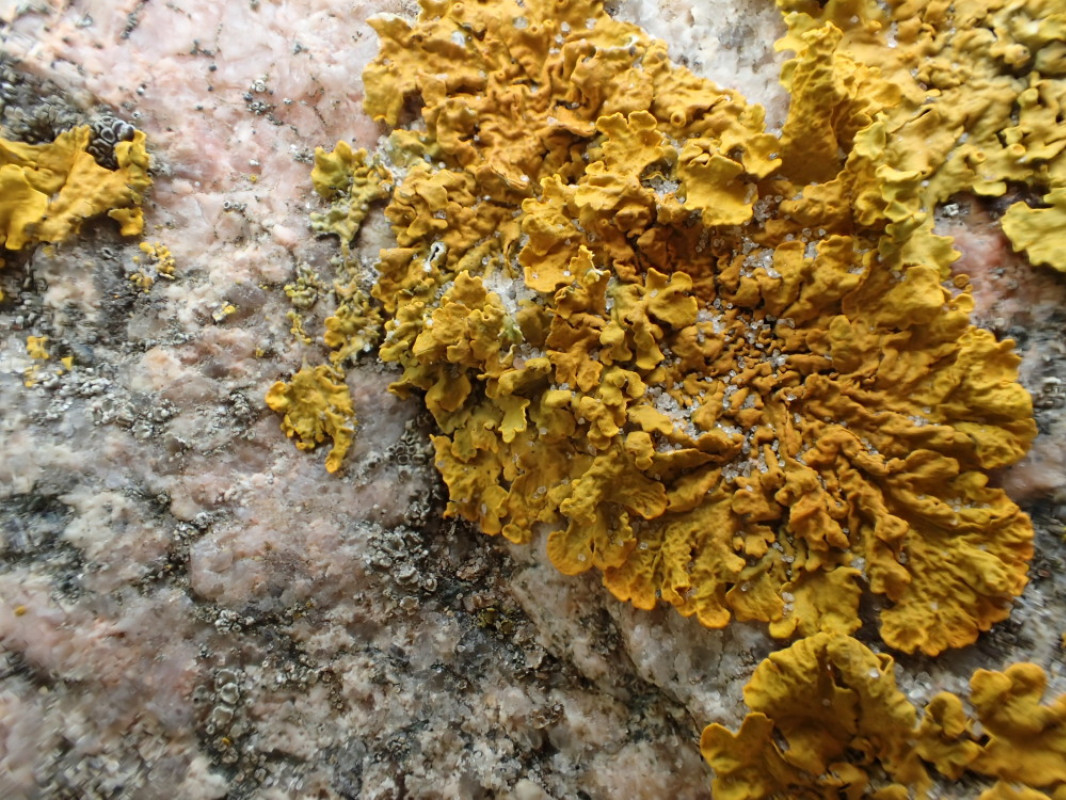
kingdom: Fungi
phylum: Ascomycota
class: Lecanoromycetes
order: Teloschistales
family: Teloschistaceae
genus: Xanthoria
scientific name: Xanthoria aureola
